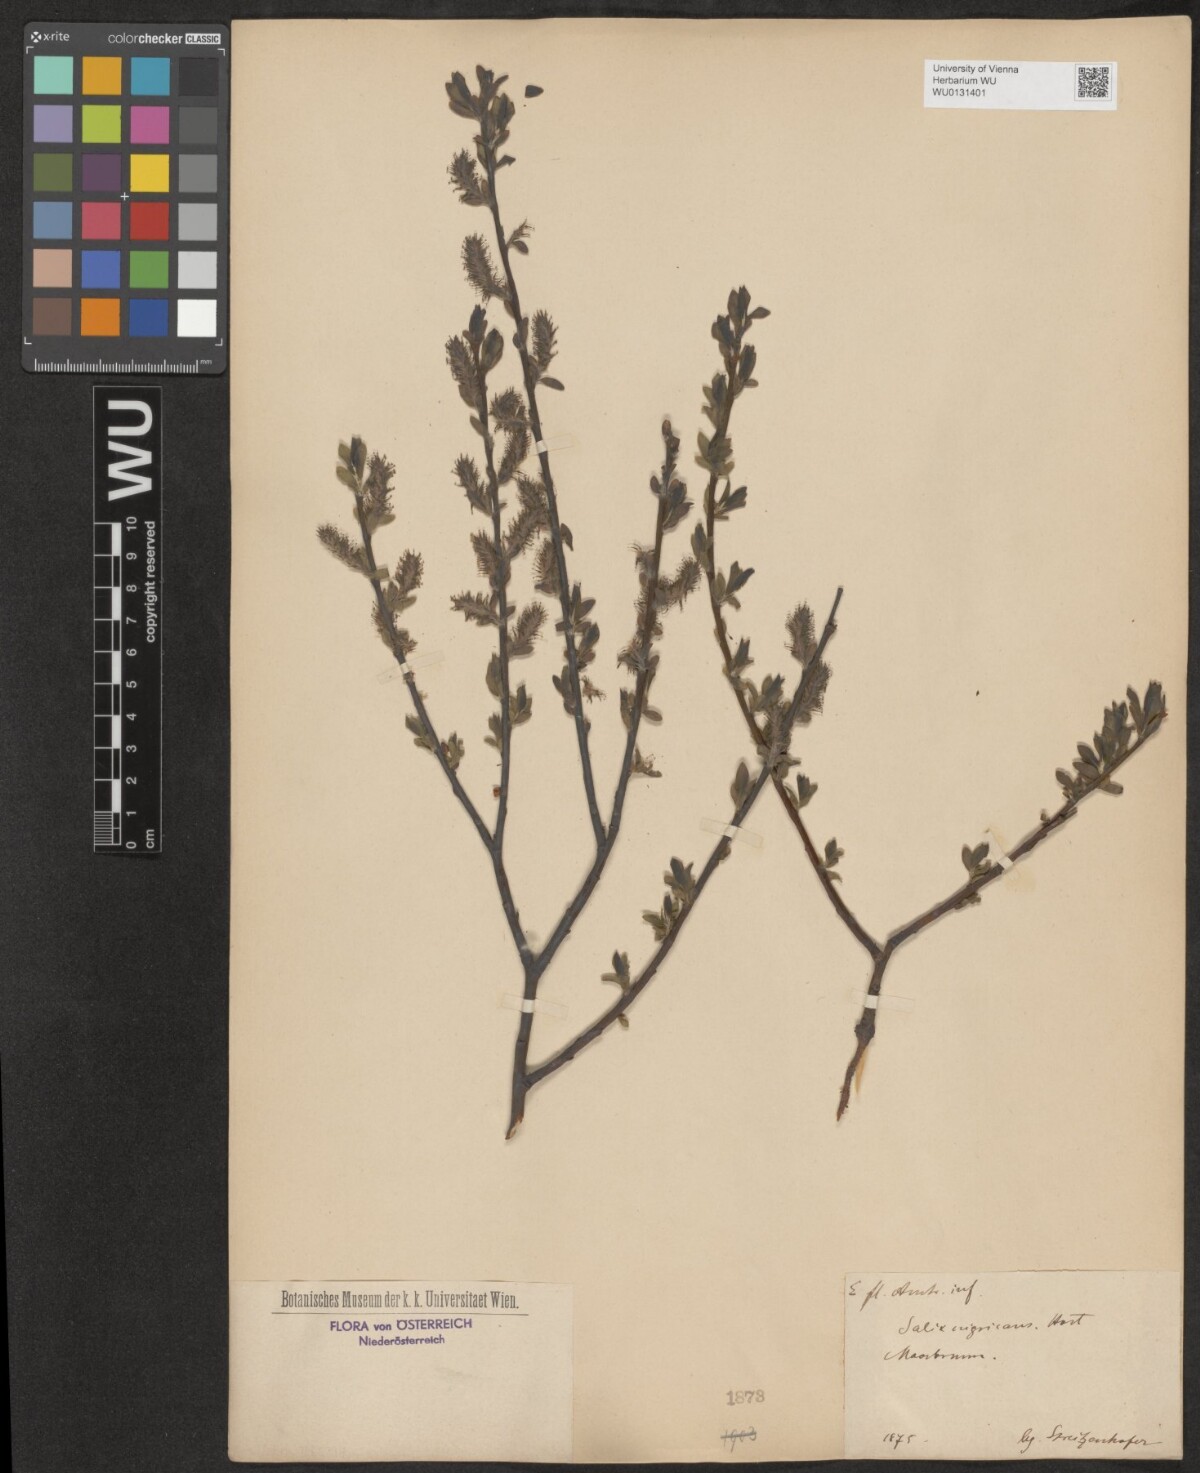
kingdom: Plantae
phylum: Tracheophyta
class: Magnoliopsida
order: Malpighiales
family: Salicaceae
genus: Salix
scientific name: Salix myrsinifolia
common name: Dark-leaved willow
